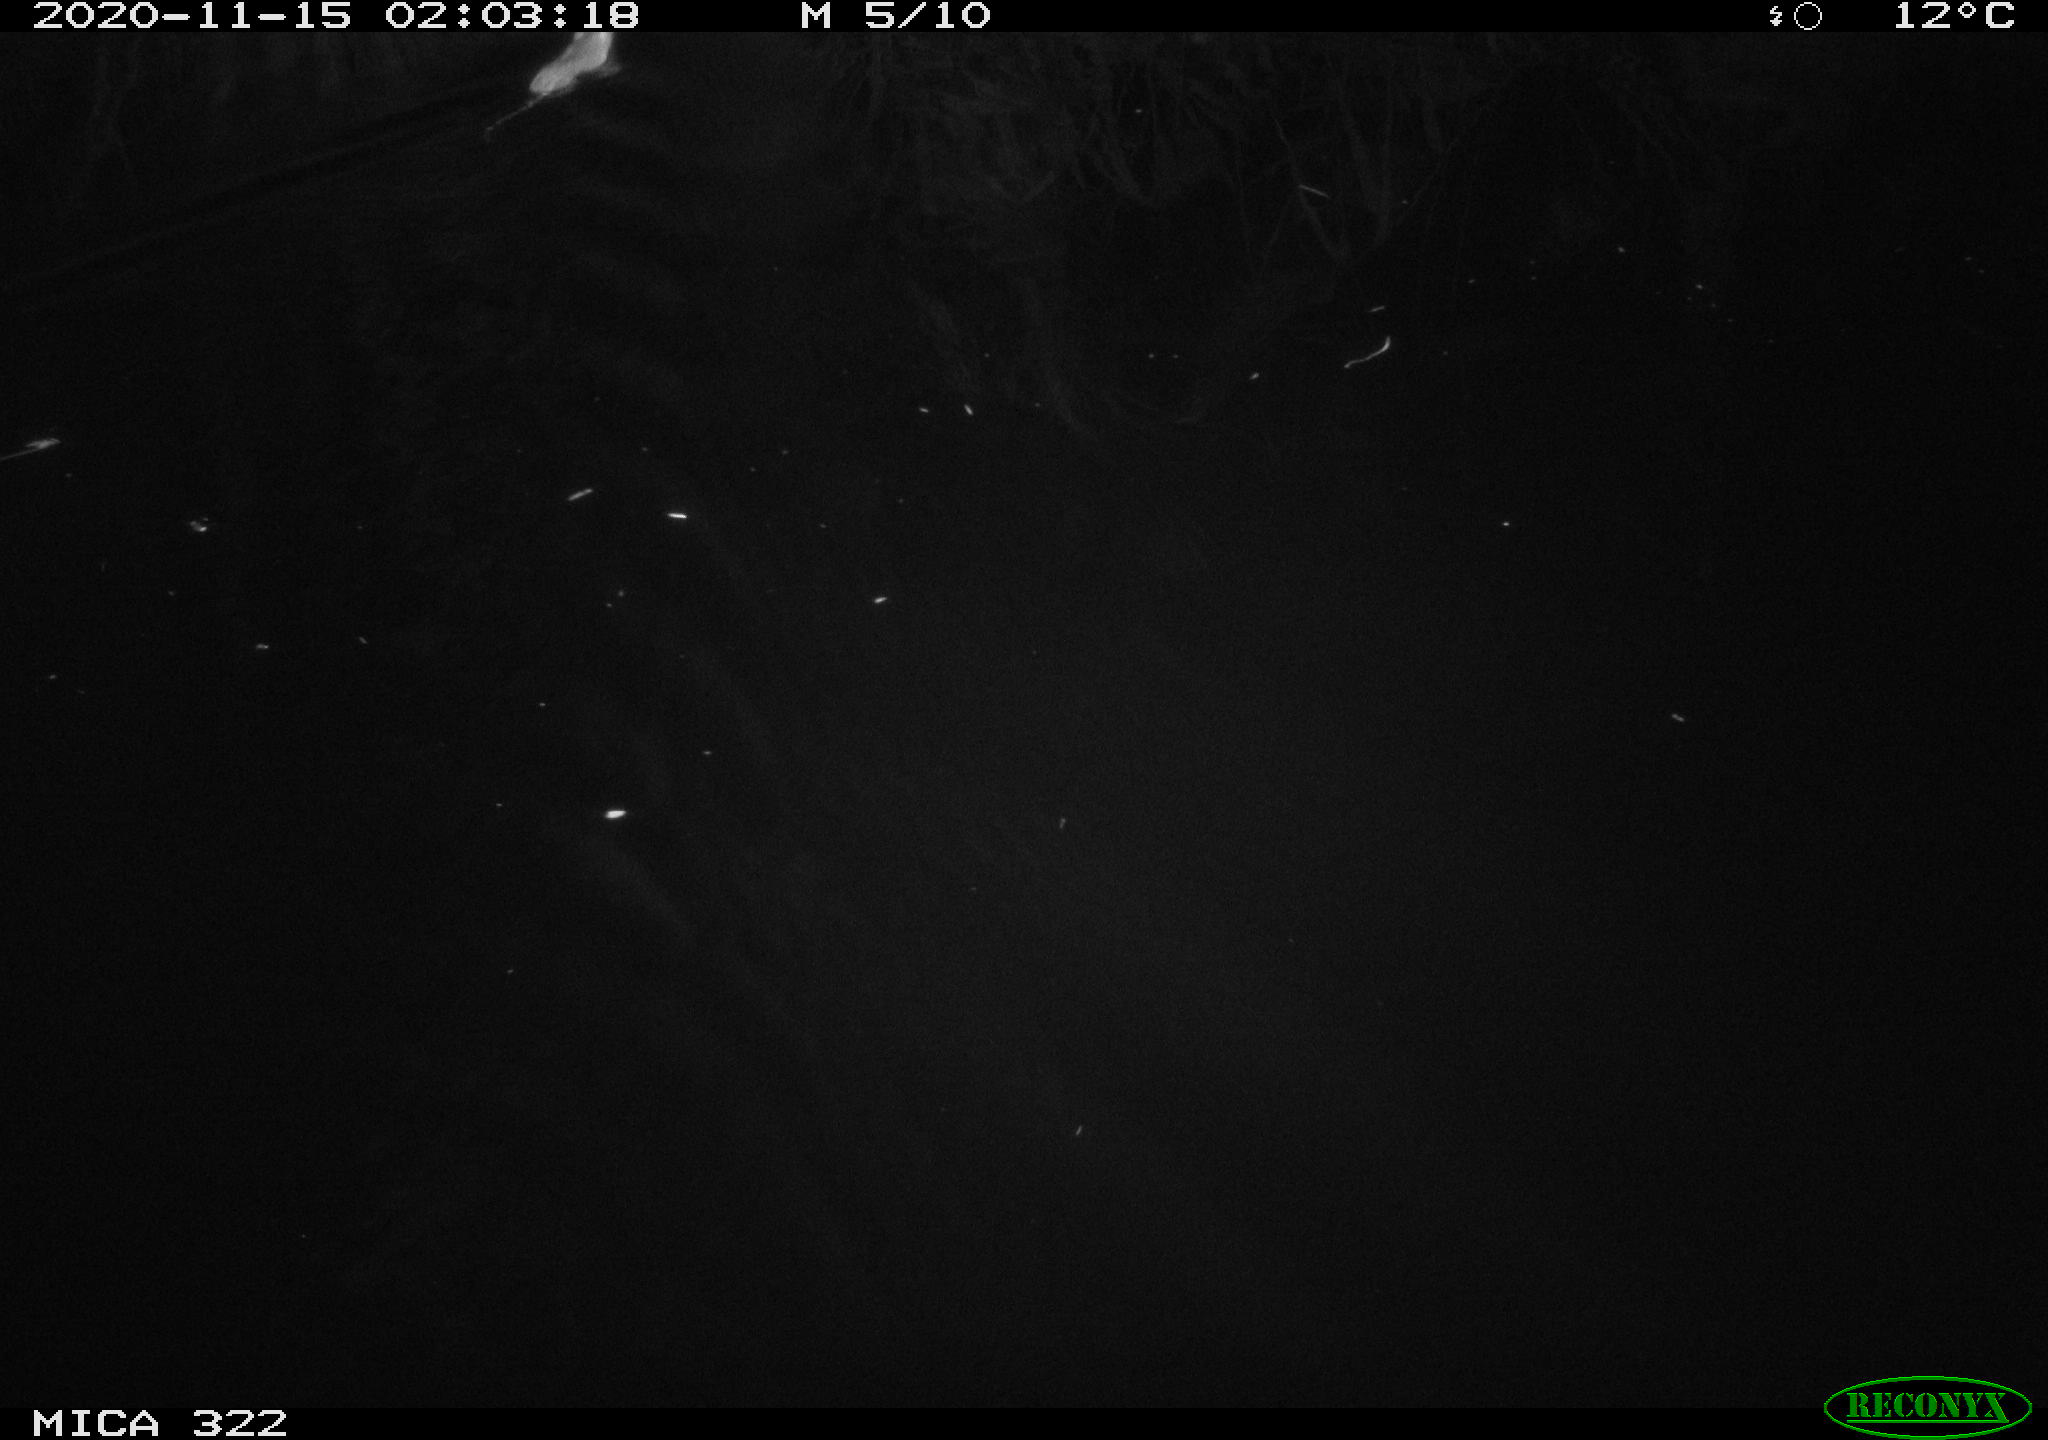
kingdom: Animalia
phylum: Chordata
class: Mammalia
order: Rodentia
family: Muridae
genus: Rattus
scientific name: Rattus norvegicus
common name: Brown rat
